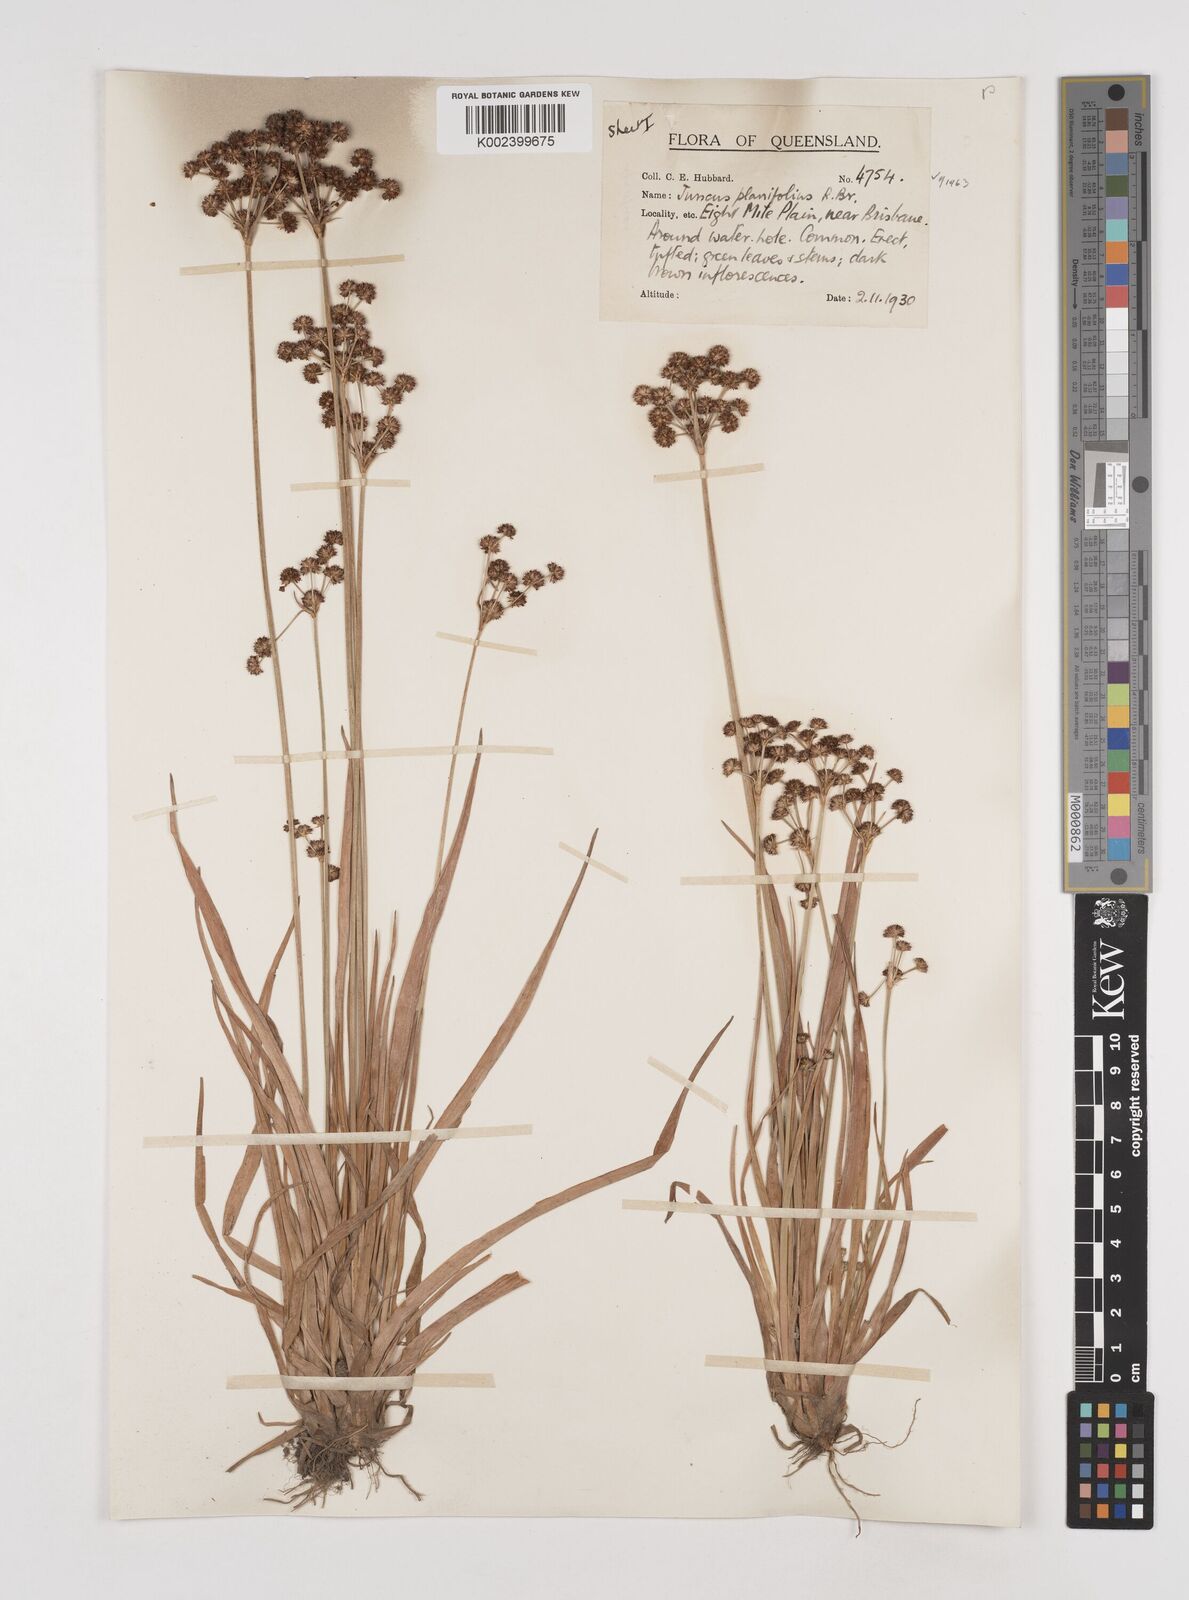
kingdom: Plantae
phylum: Tracheophyta
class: Liliopsida
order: Poales
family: Juncaceae
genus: Juncus
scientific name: Juncus planifolius
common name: Broadleaf rush
